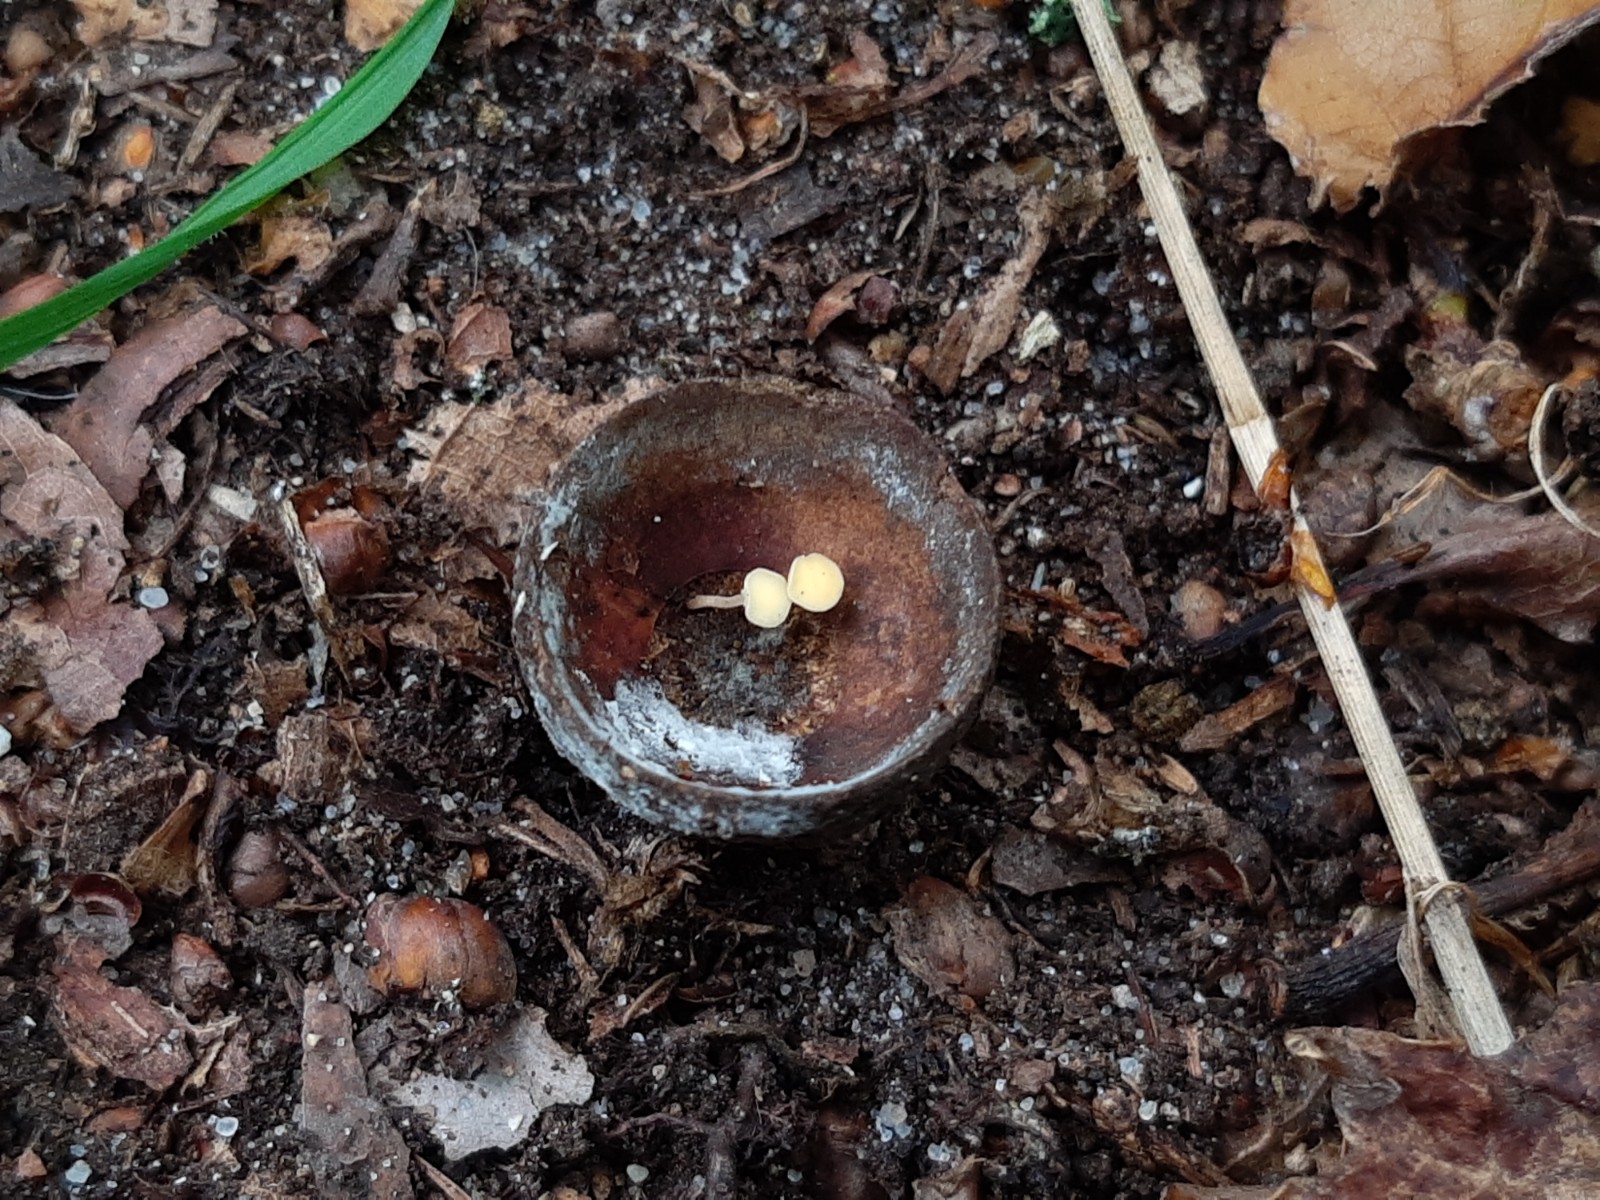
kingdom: Fungi
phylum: Ascomycota
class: Leotiomycetes
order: Helotiales
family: Helotiaceae
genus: Hymenoscyphus
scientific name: Hymenoscyphus fructigenus
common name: frugt-stilkskive
